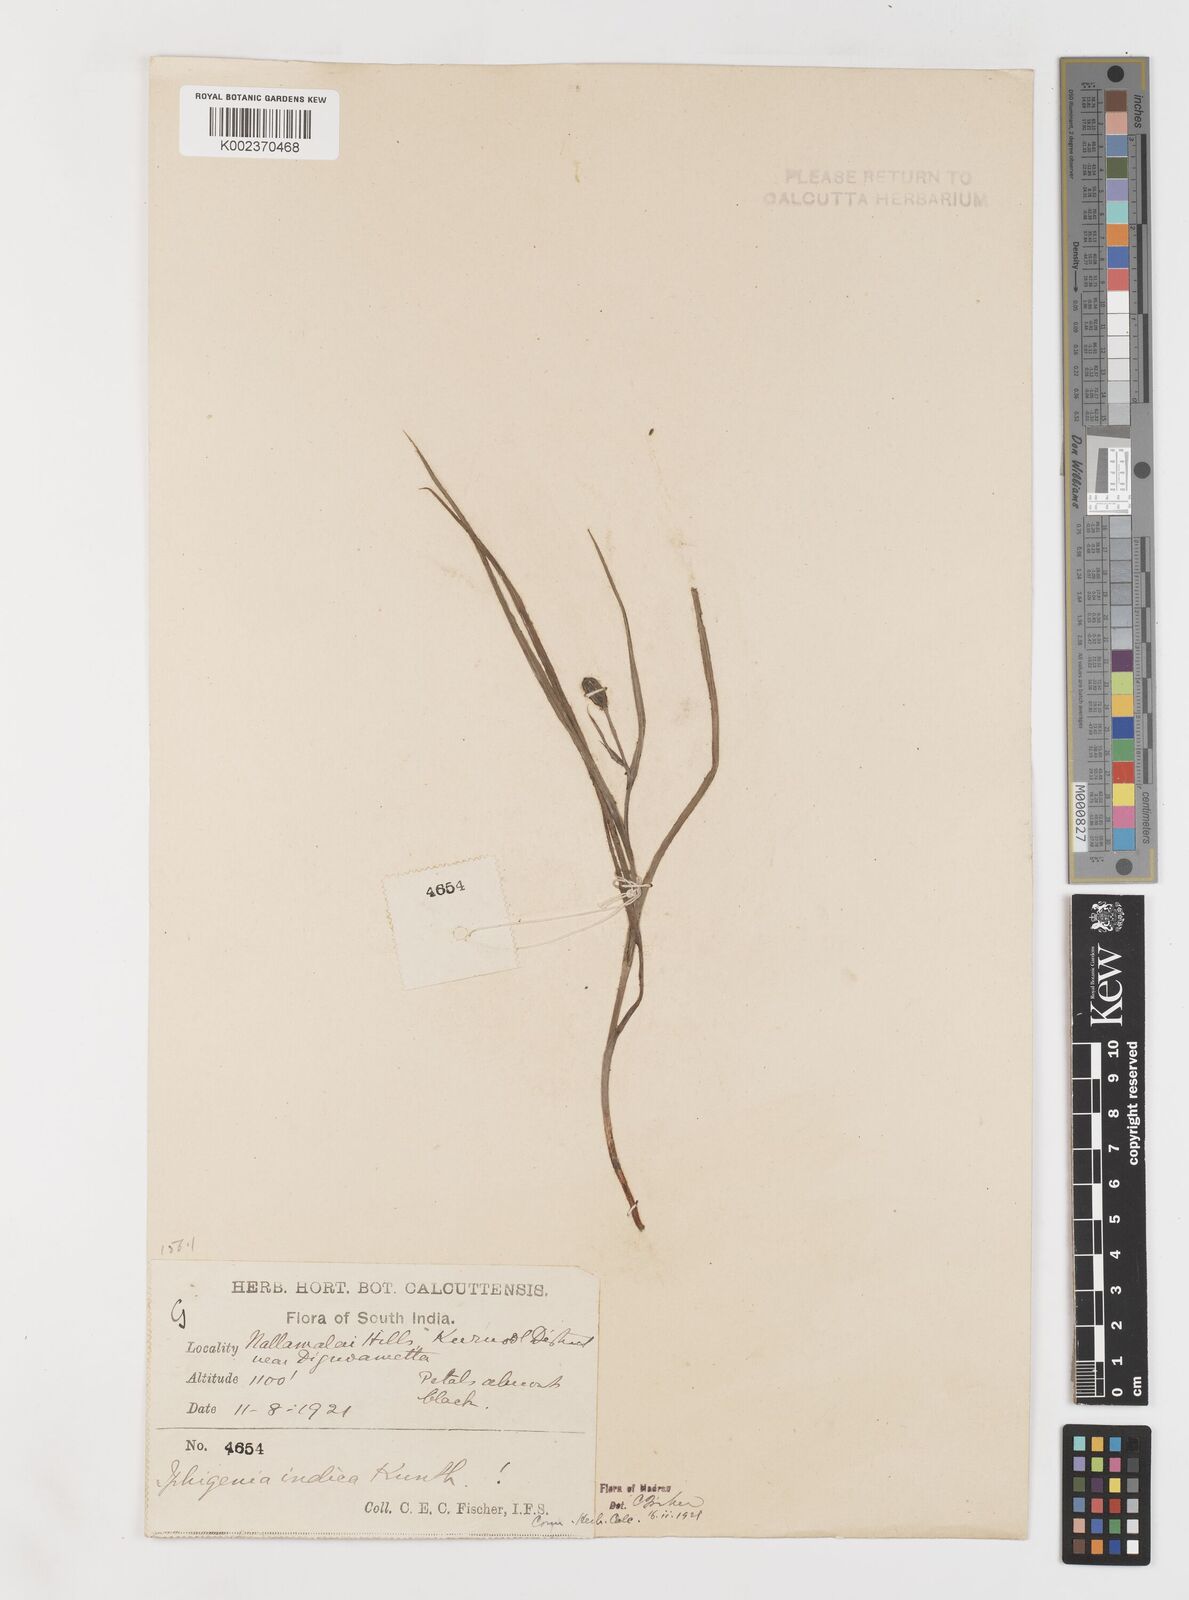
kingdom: Plantae
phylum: Tracheophyta
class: Liliopsida
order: Liliales
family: Colchicaceae
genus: Iphigenia
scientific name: Iphigenia indica
